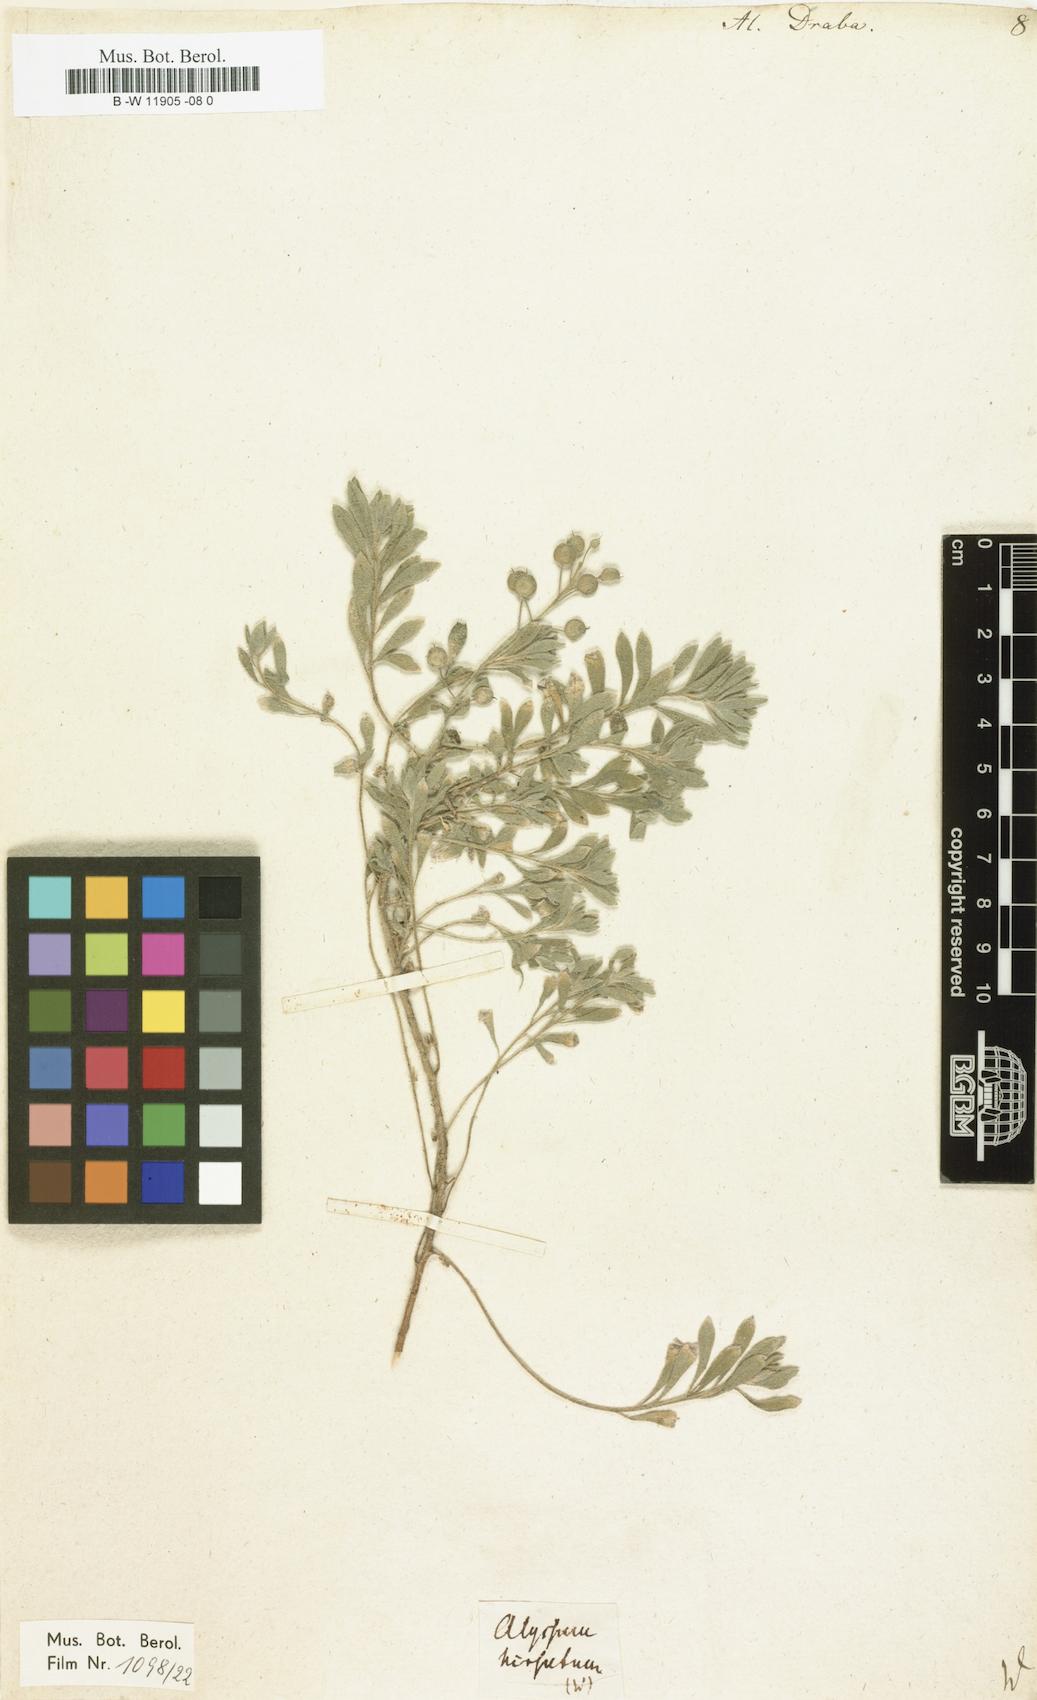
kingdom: Plantae
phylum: Tracheophyta
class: Magnoliopsida
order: Brassicales
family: Brassicaceae
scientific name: Brassicaceae
